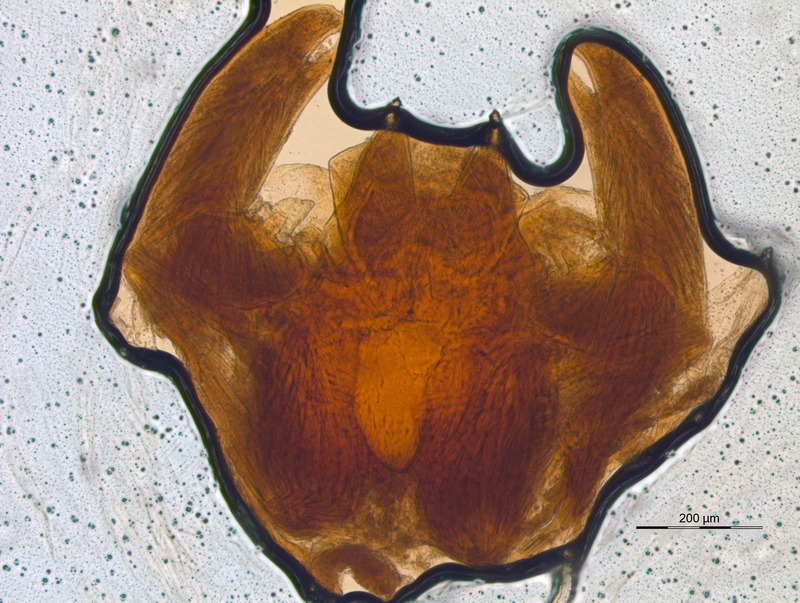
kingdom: Animalia
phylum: Arthropoda
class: Diplopoda
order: Glomerida
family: Glomeridellidae
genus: Glomeridella
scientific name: Glomeridella minima
